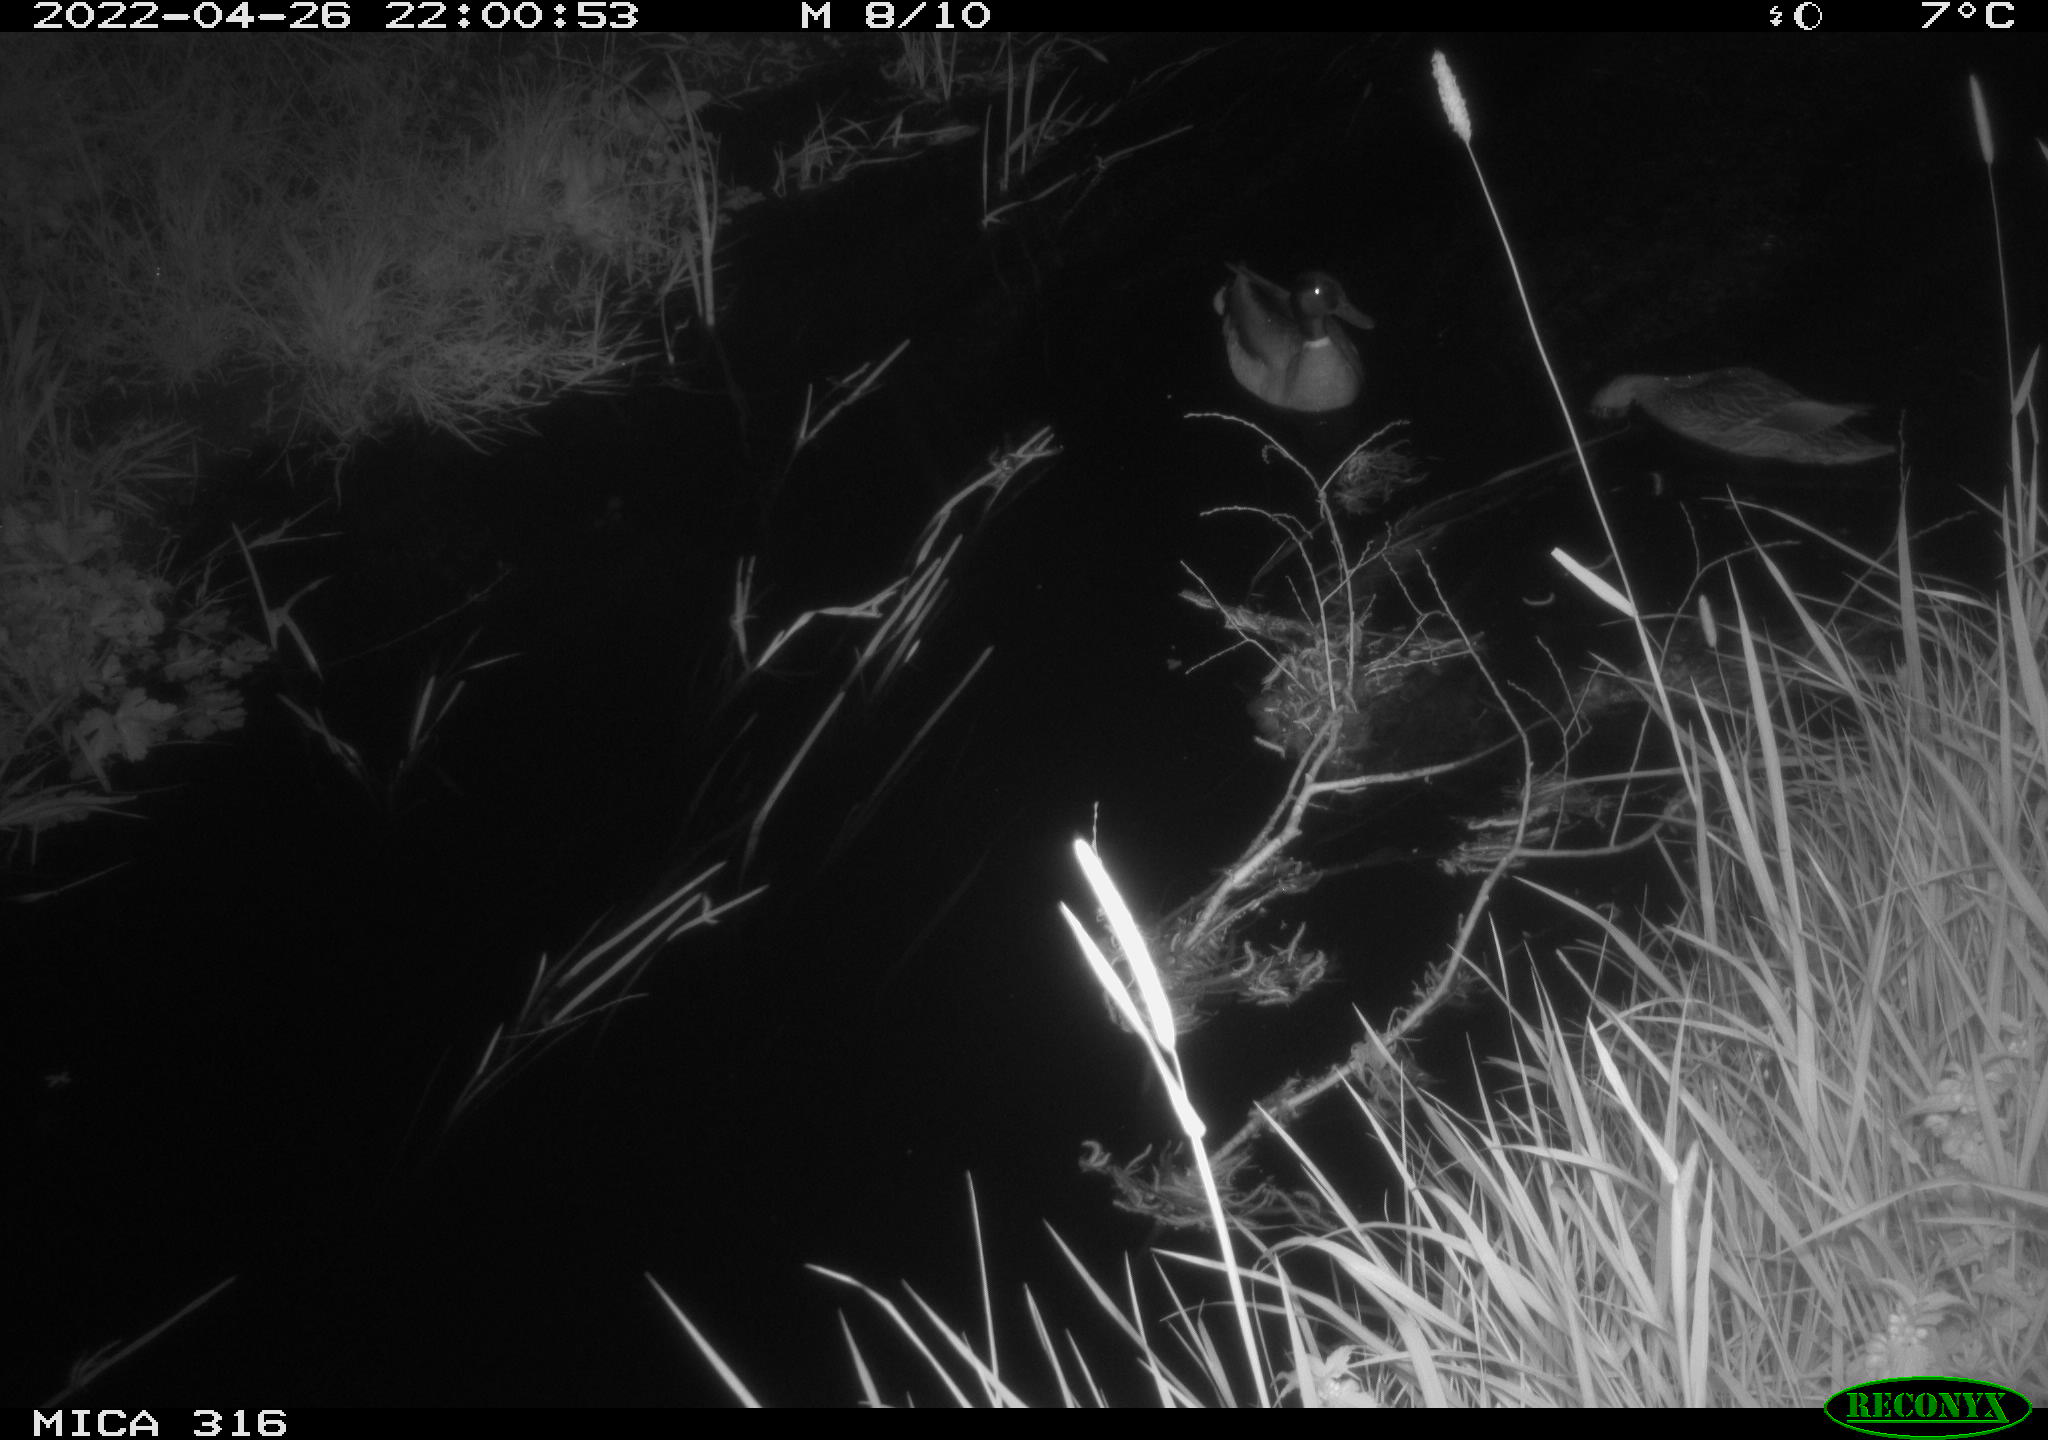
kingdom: Animalia
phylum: Chordata
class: Aves
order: Anseriformes
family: Anatidae
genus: Anas
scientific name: Anas platyrhynchos
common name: Mallard
